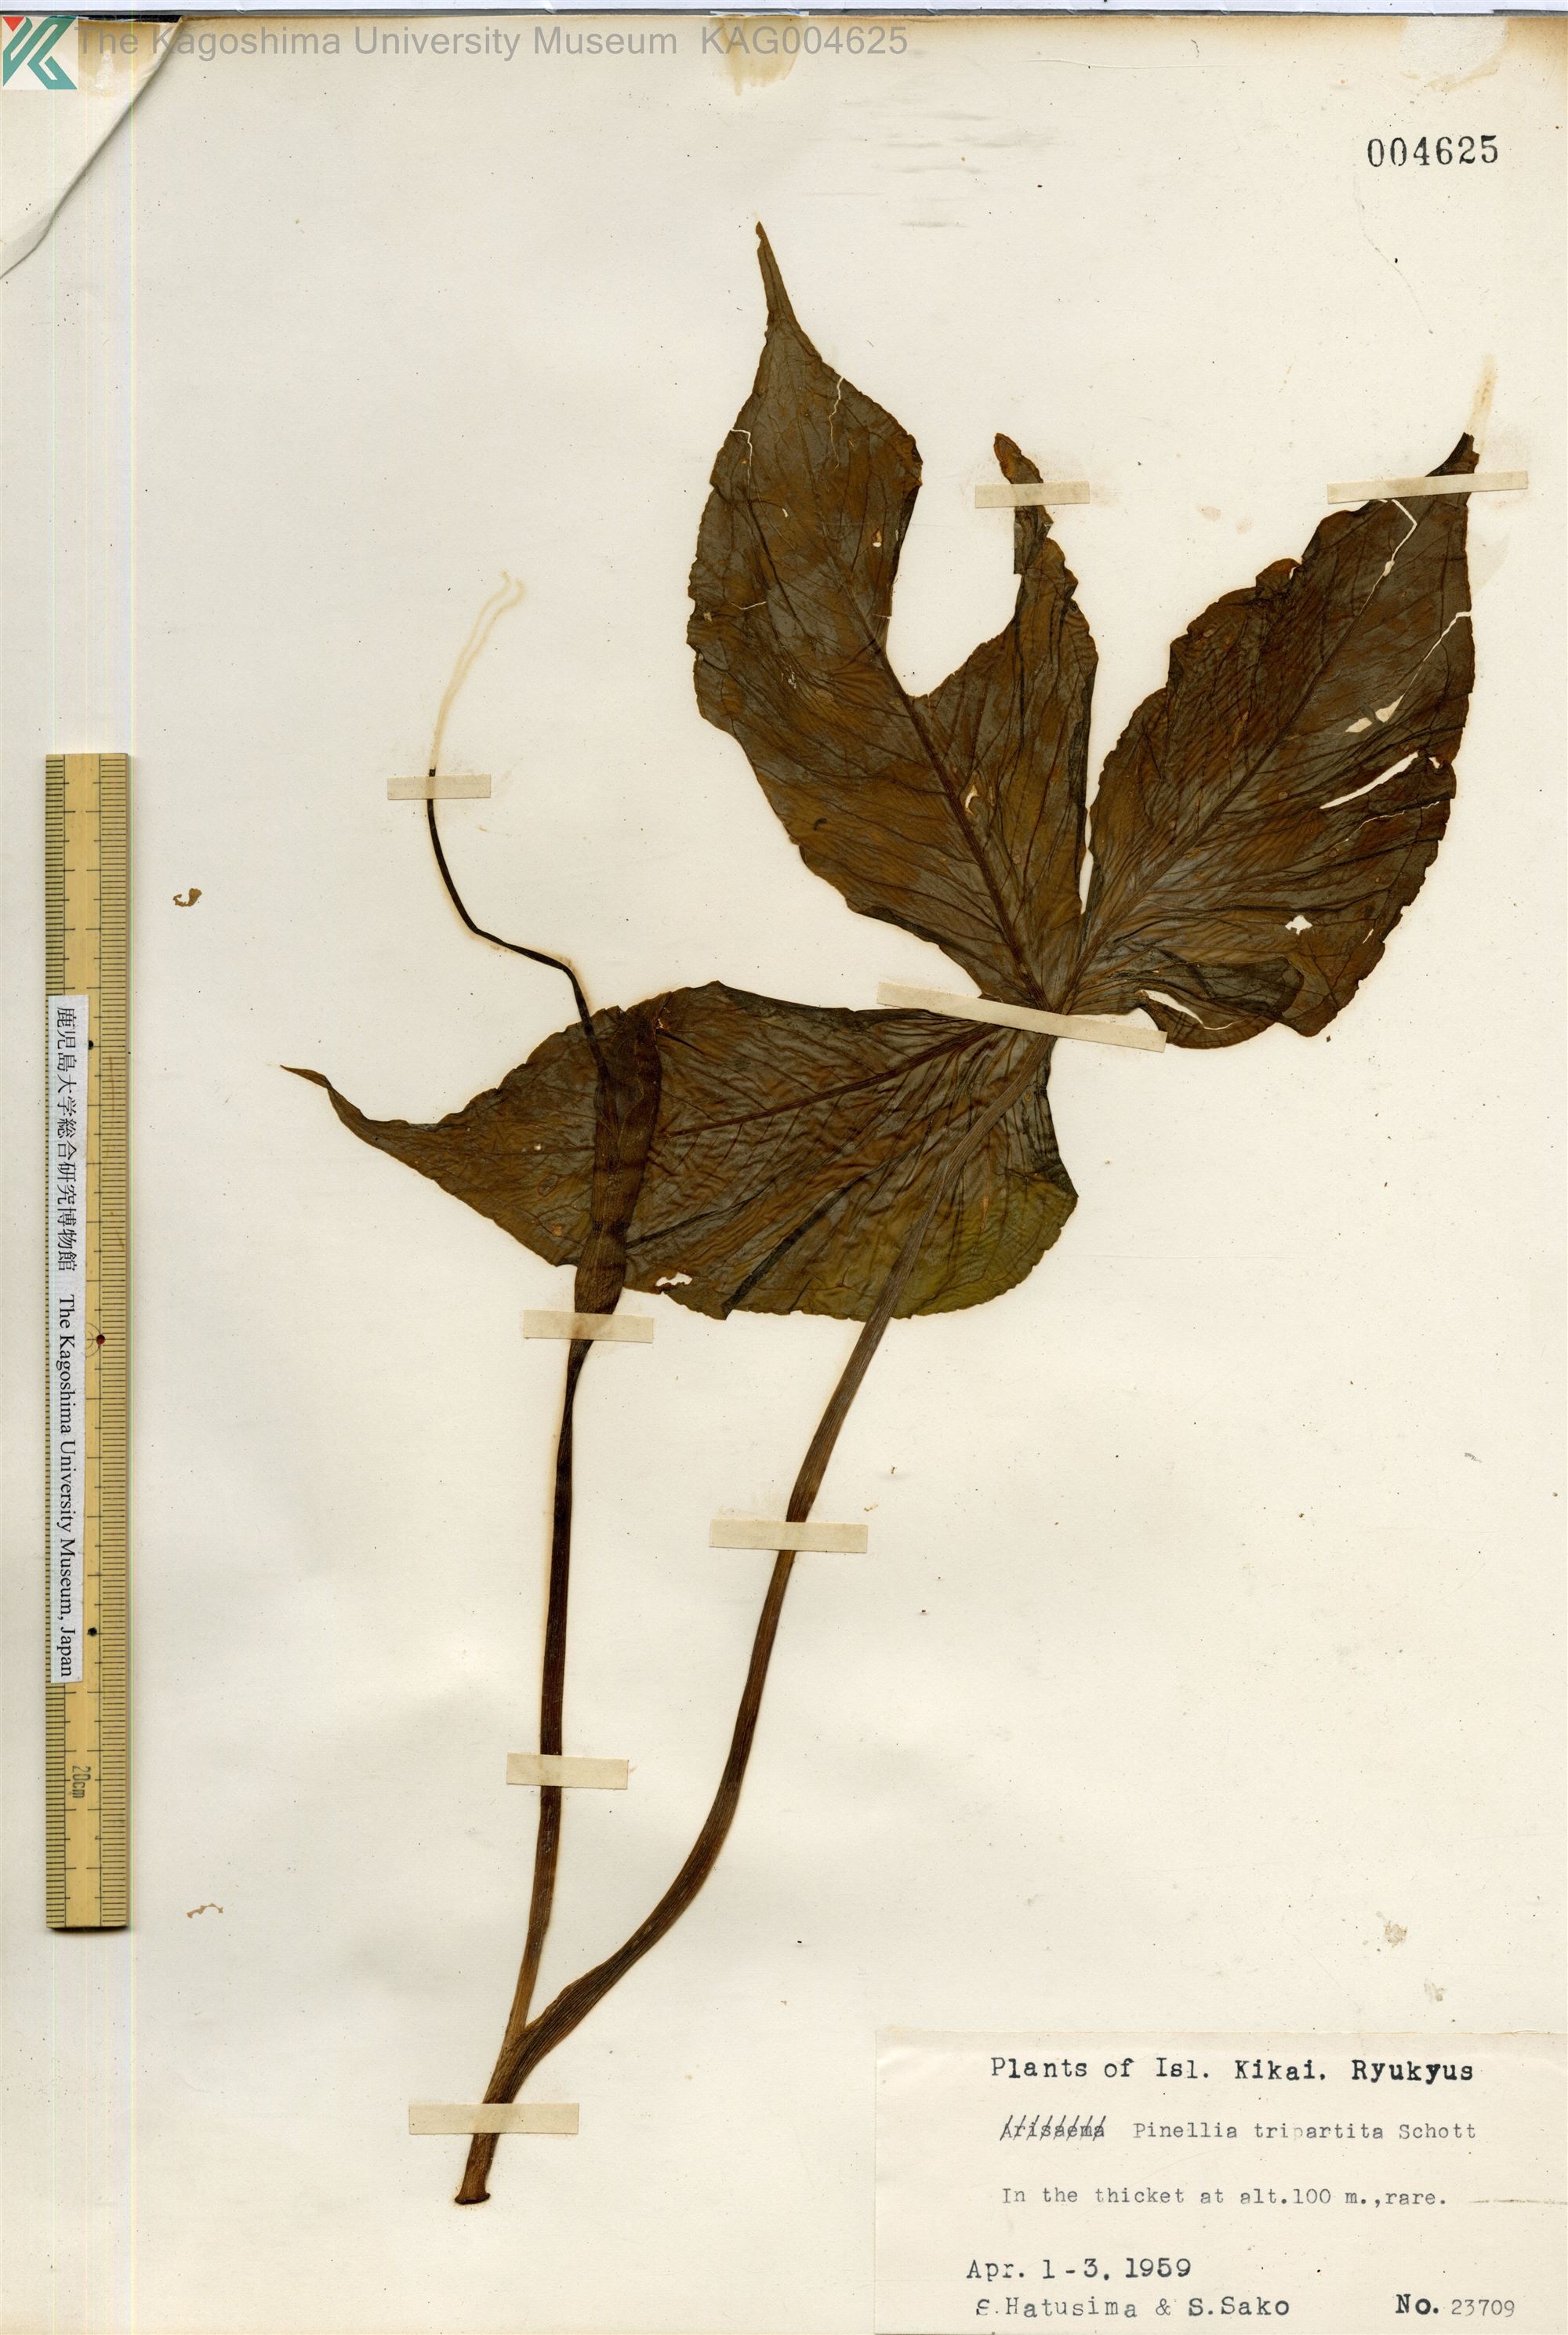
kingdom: Plantae
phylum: Tracheophyta
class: Liliopsida
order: Alismatales
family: Araceae
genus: Pinellia
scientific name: Pinellia tripartita
